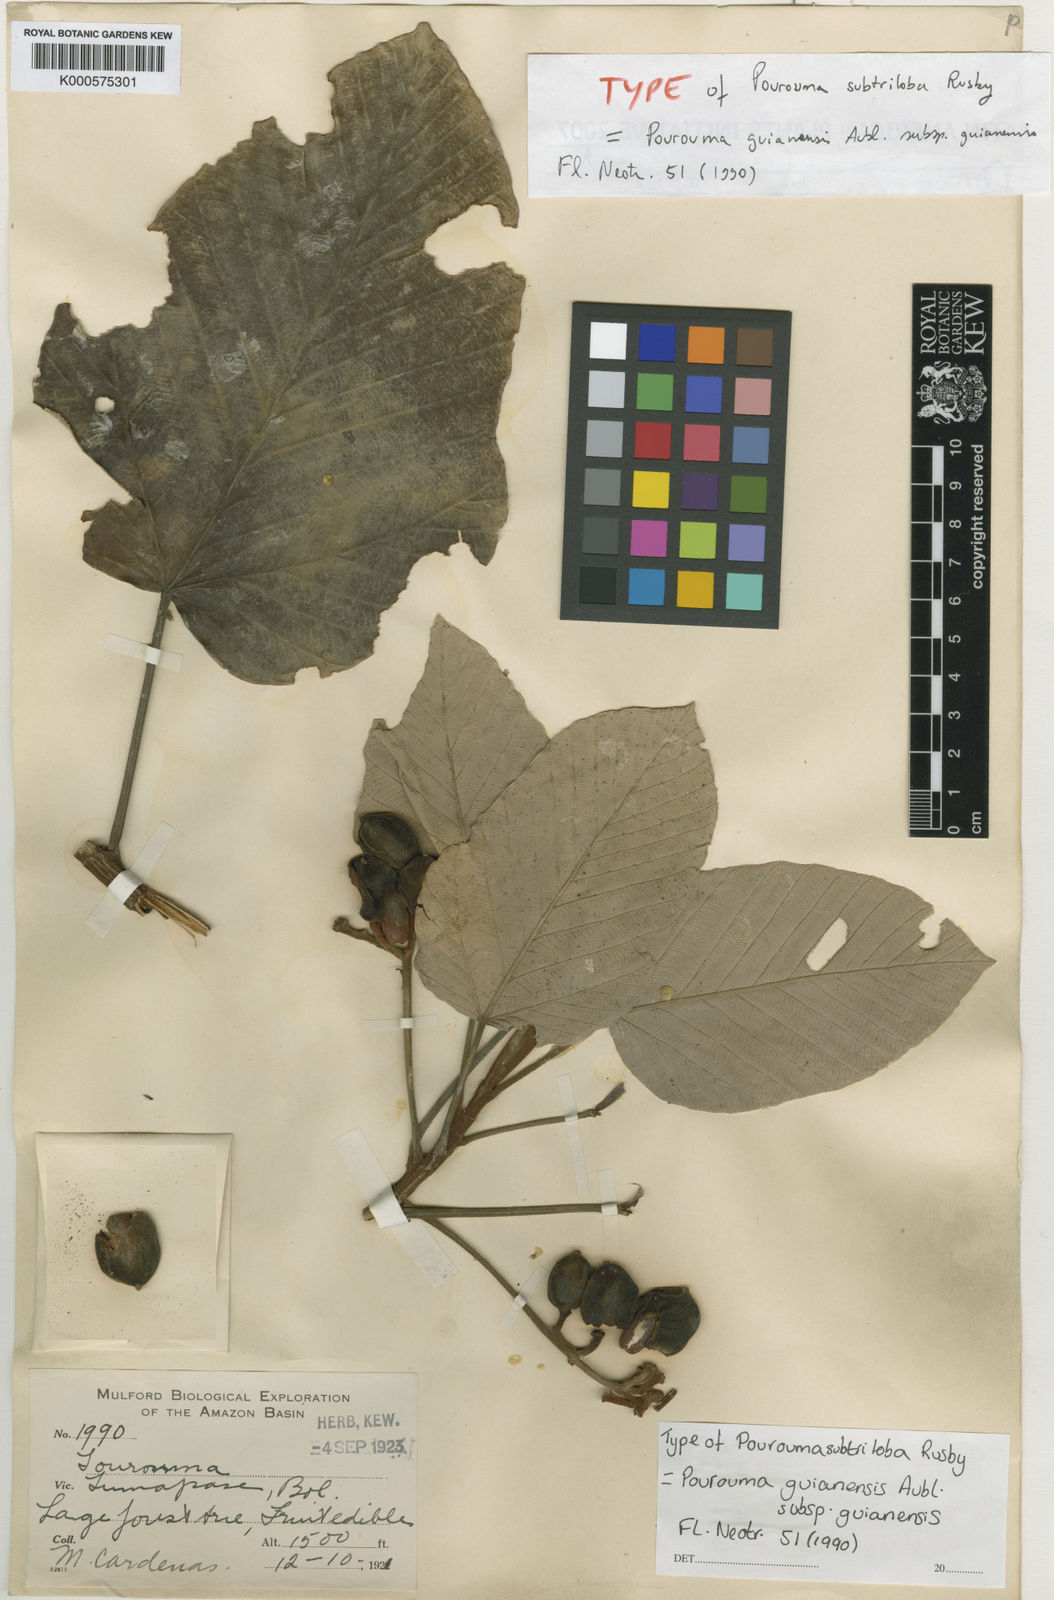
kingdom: Plantae
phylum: Tracheophyta
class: Magnoliopsida
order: Rosales
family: Urticaceae
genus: Pourouma
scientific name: Pourouma guianensis
